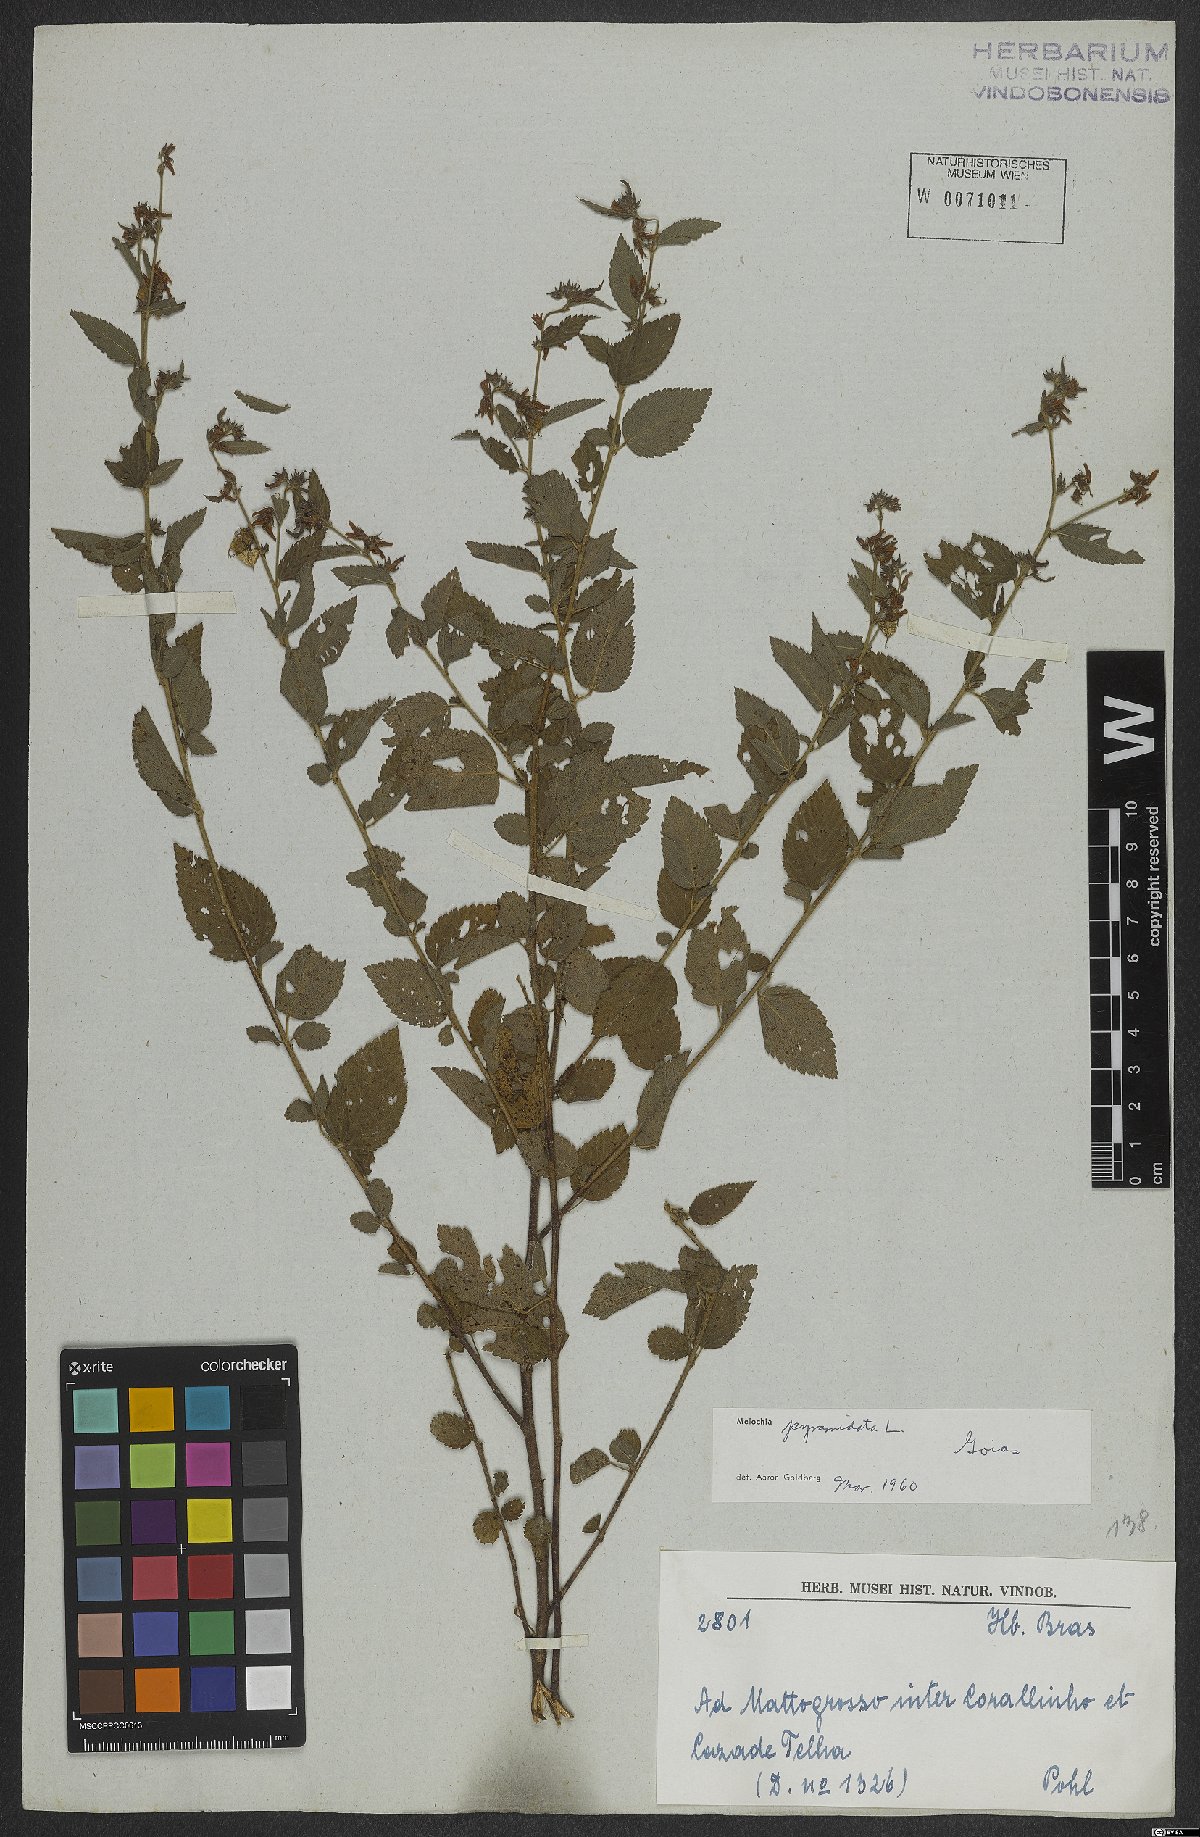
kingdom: Plantae
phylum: Tracheophyta
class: Magnoliopsida
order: Malvales
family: Malvaceae
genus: Melochia
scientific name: Melochia pyramidata
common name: Pyramidflower
